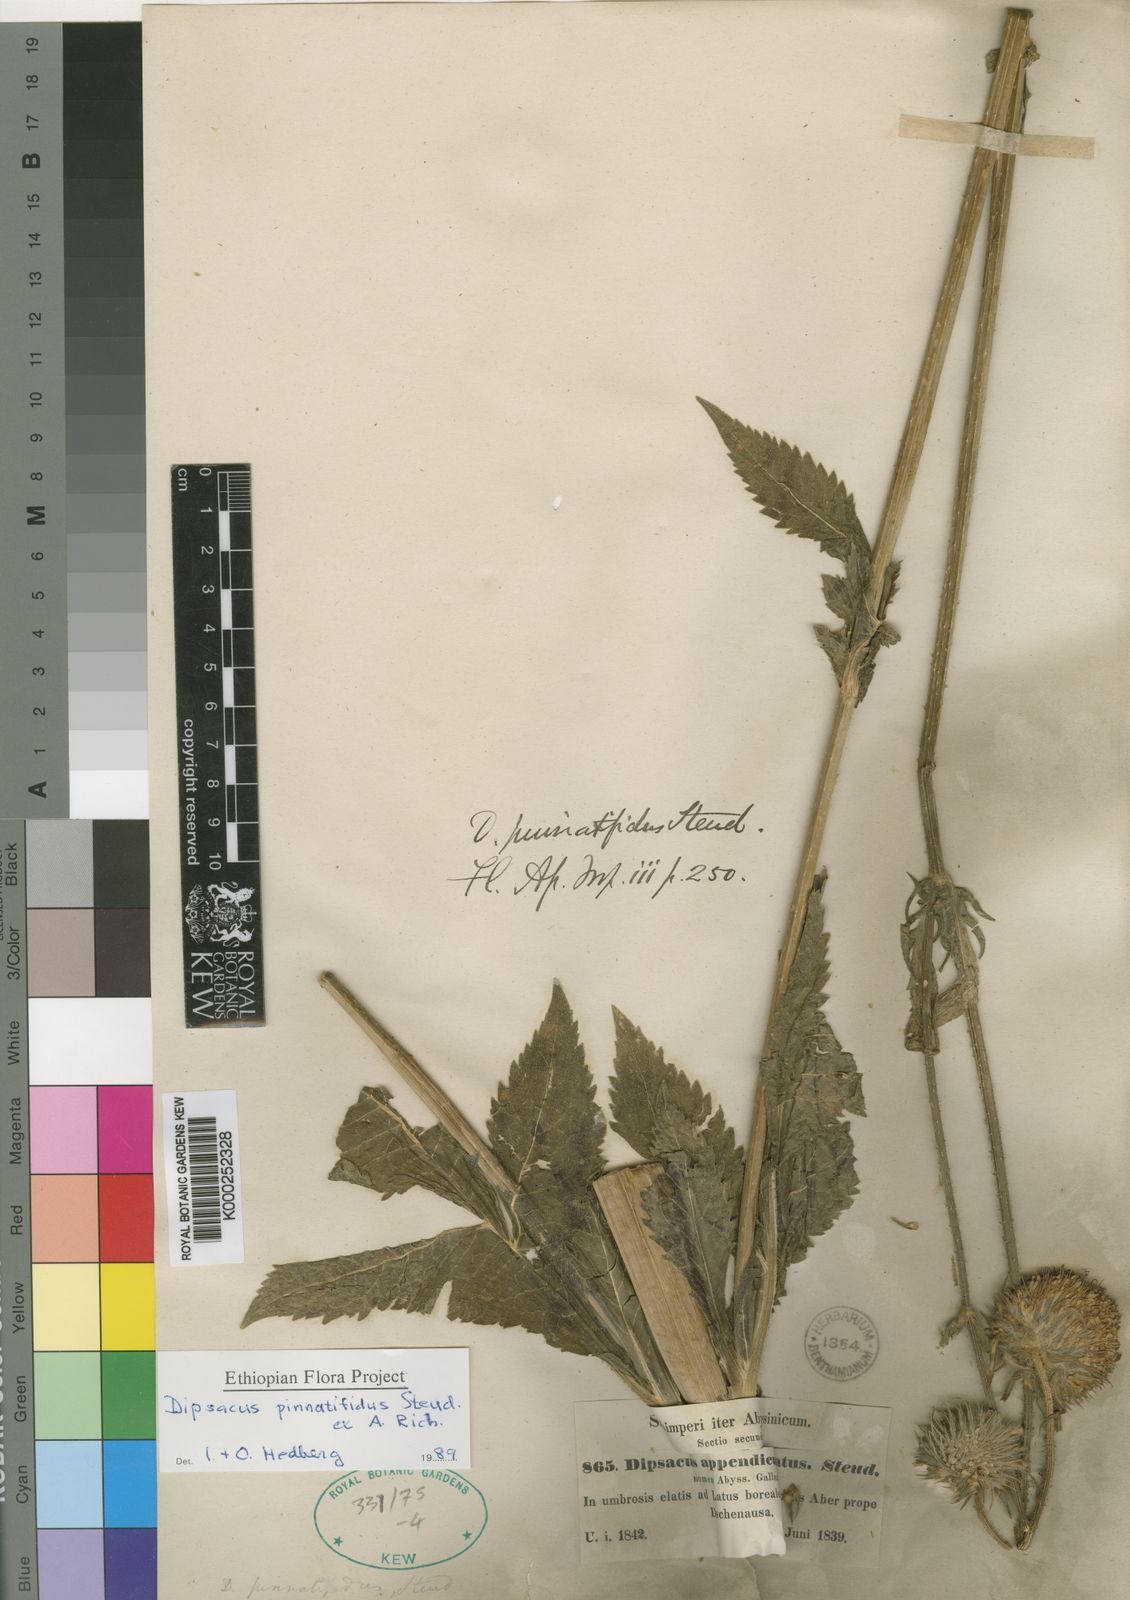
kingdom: Plantae
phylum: Tracheophyta
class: Magnoliopsida
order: Dipsacales
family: Caprifoliaceae
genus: Dipsacus
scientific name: Dipsacus pinnatifidus
